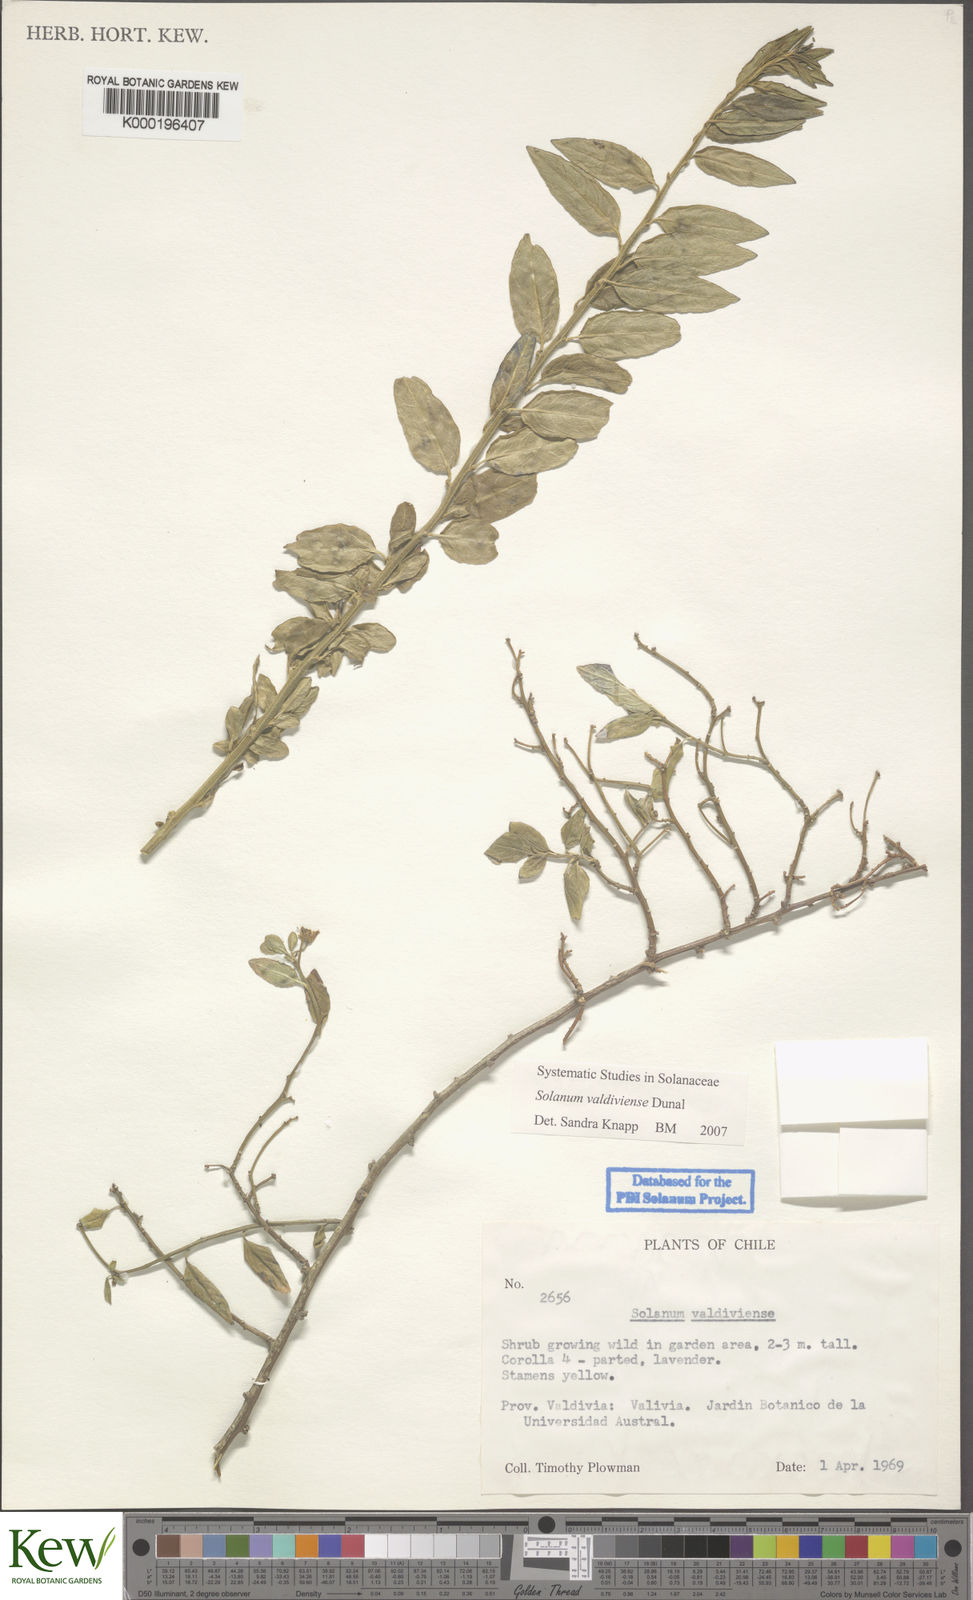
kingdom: Plantae
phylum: Tracheophyta
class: Magnoliopsida
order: Solanales
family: Solanaceae
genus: Solanum
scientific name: Solanum valdiviense
